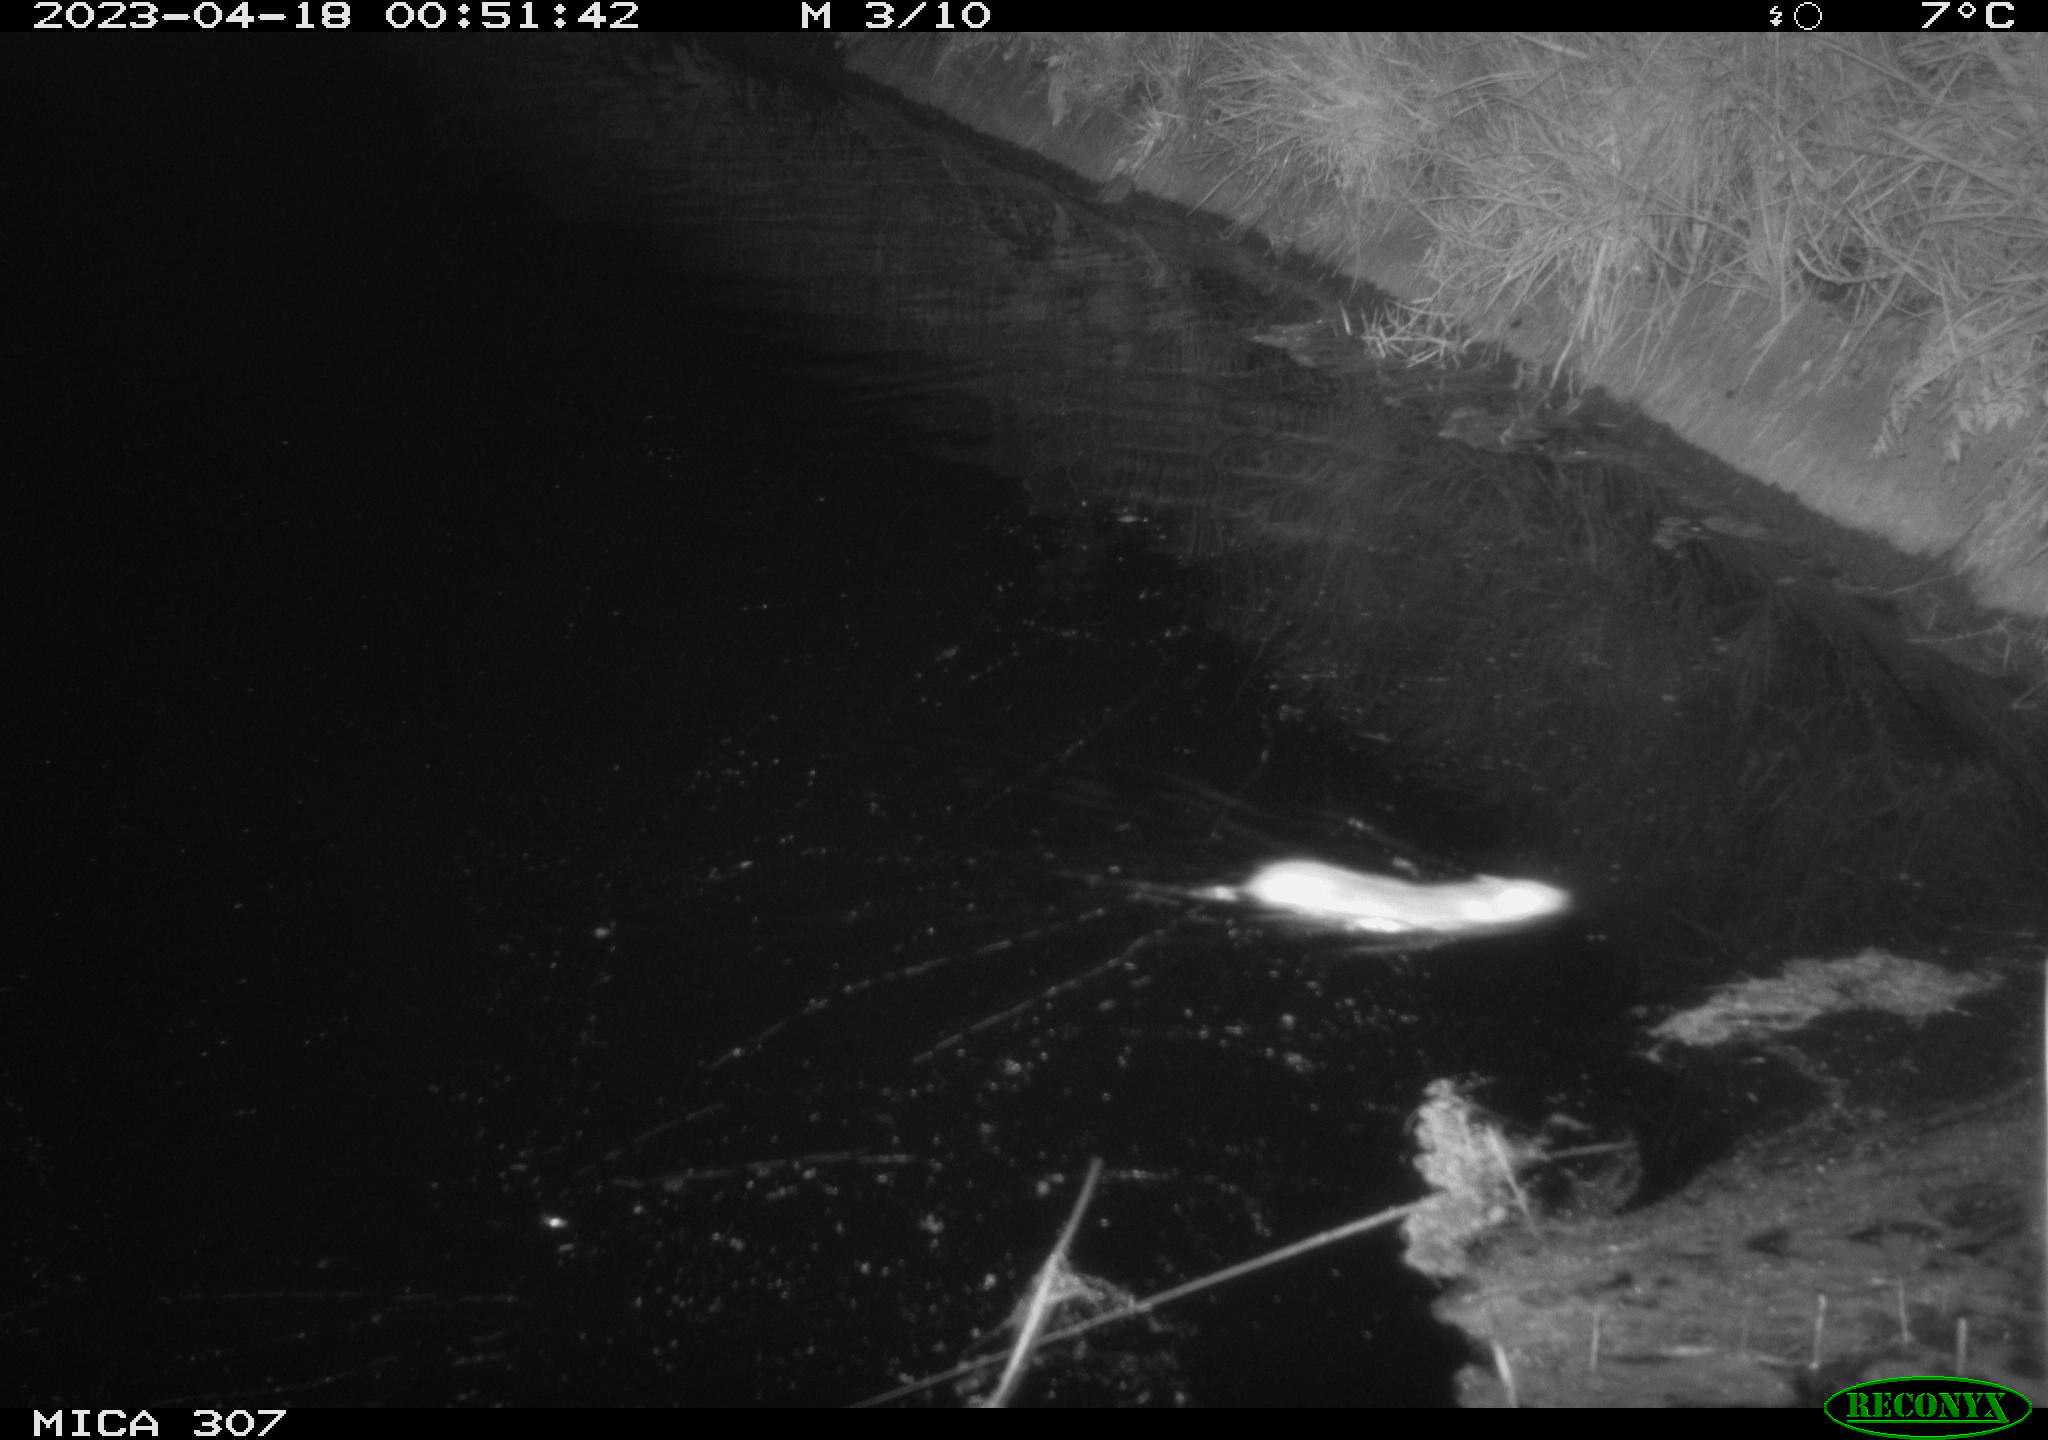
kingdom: Animalia
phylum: Chordata
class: Mammalia
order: Rodentia
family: Muridae
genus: Rattus
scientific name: Rattus norvegicus
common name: Brown rat
